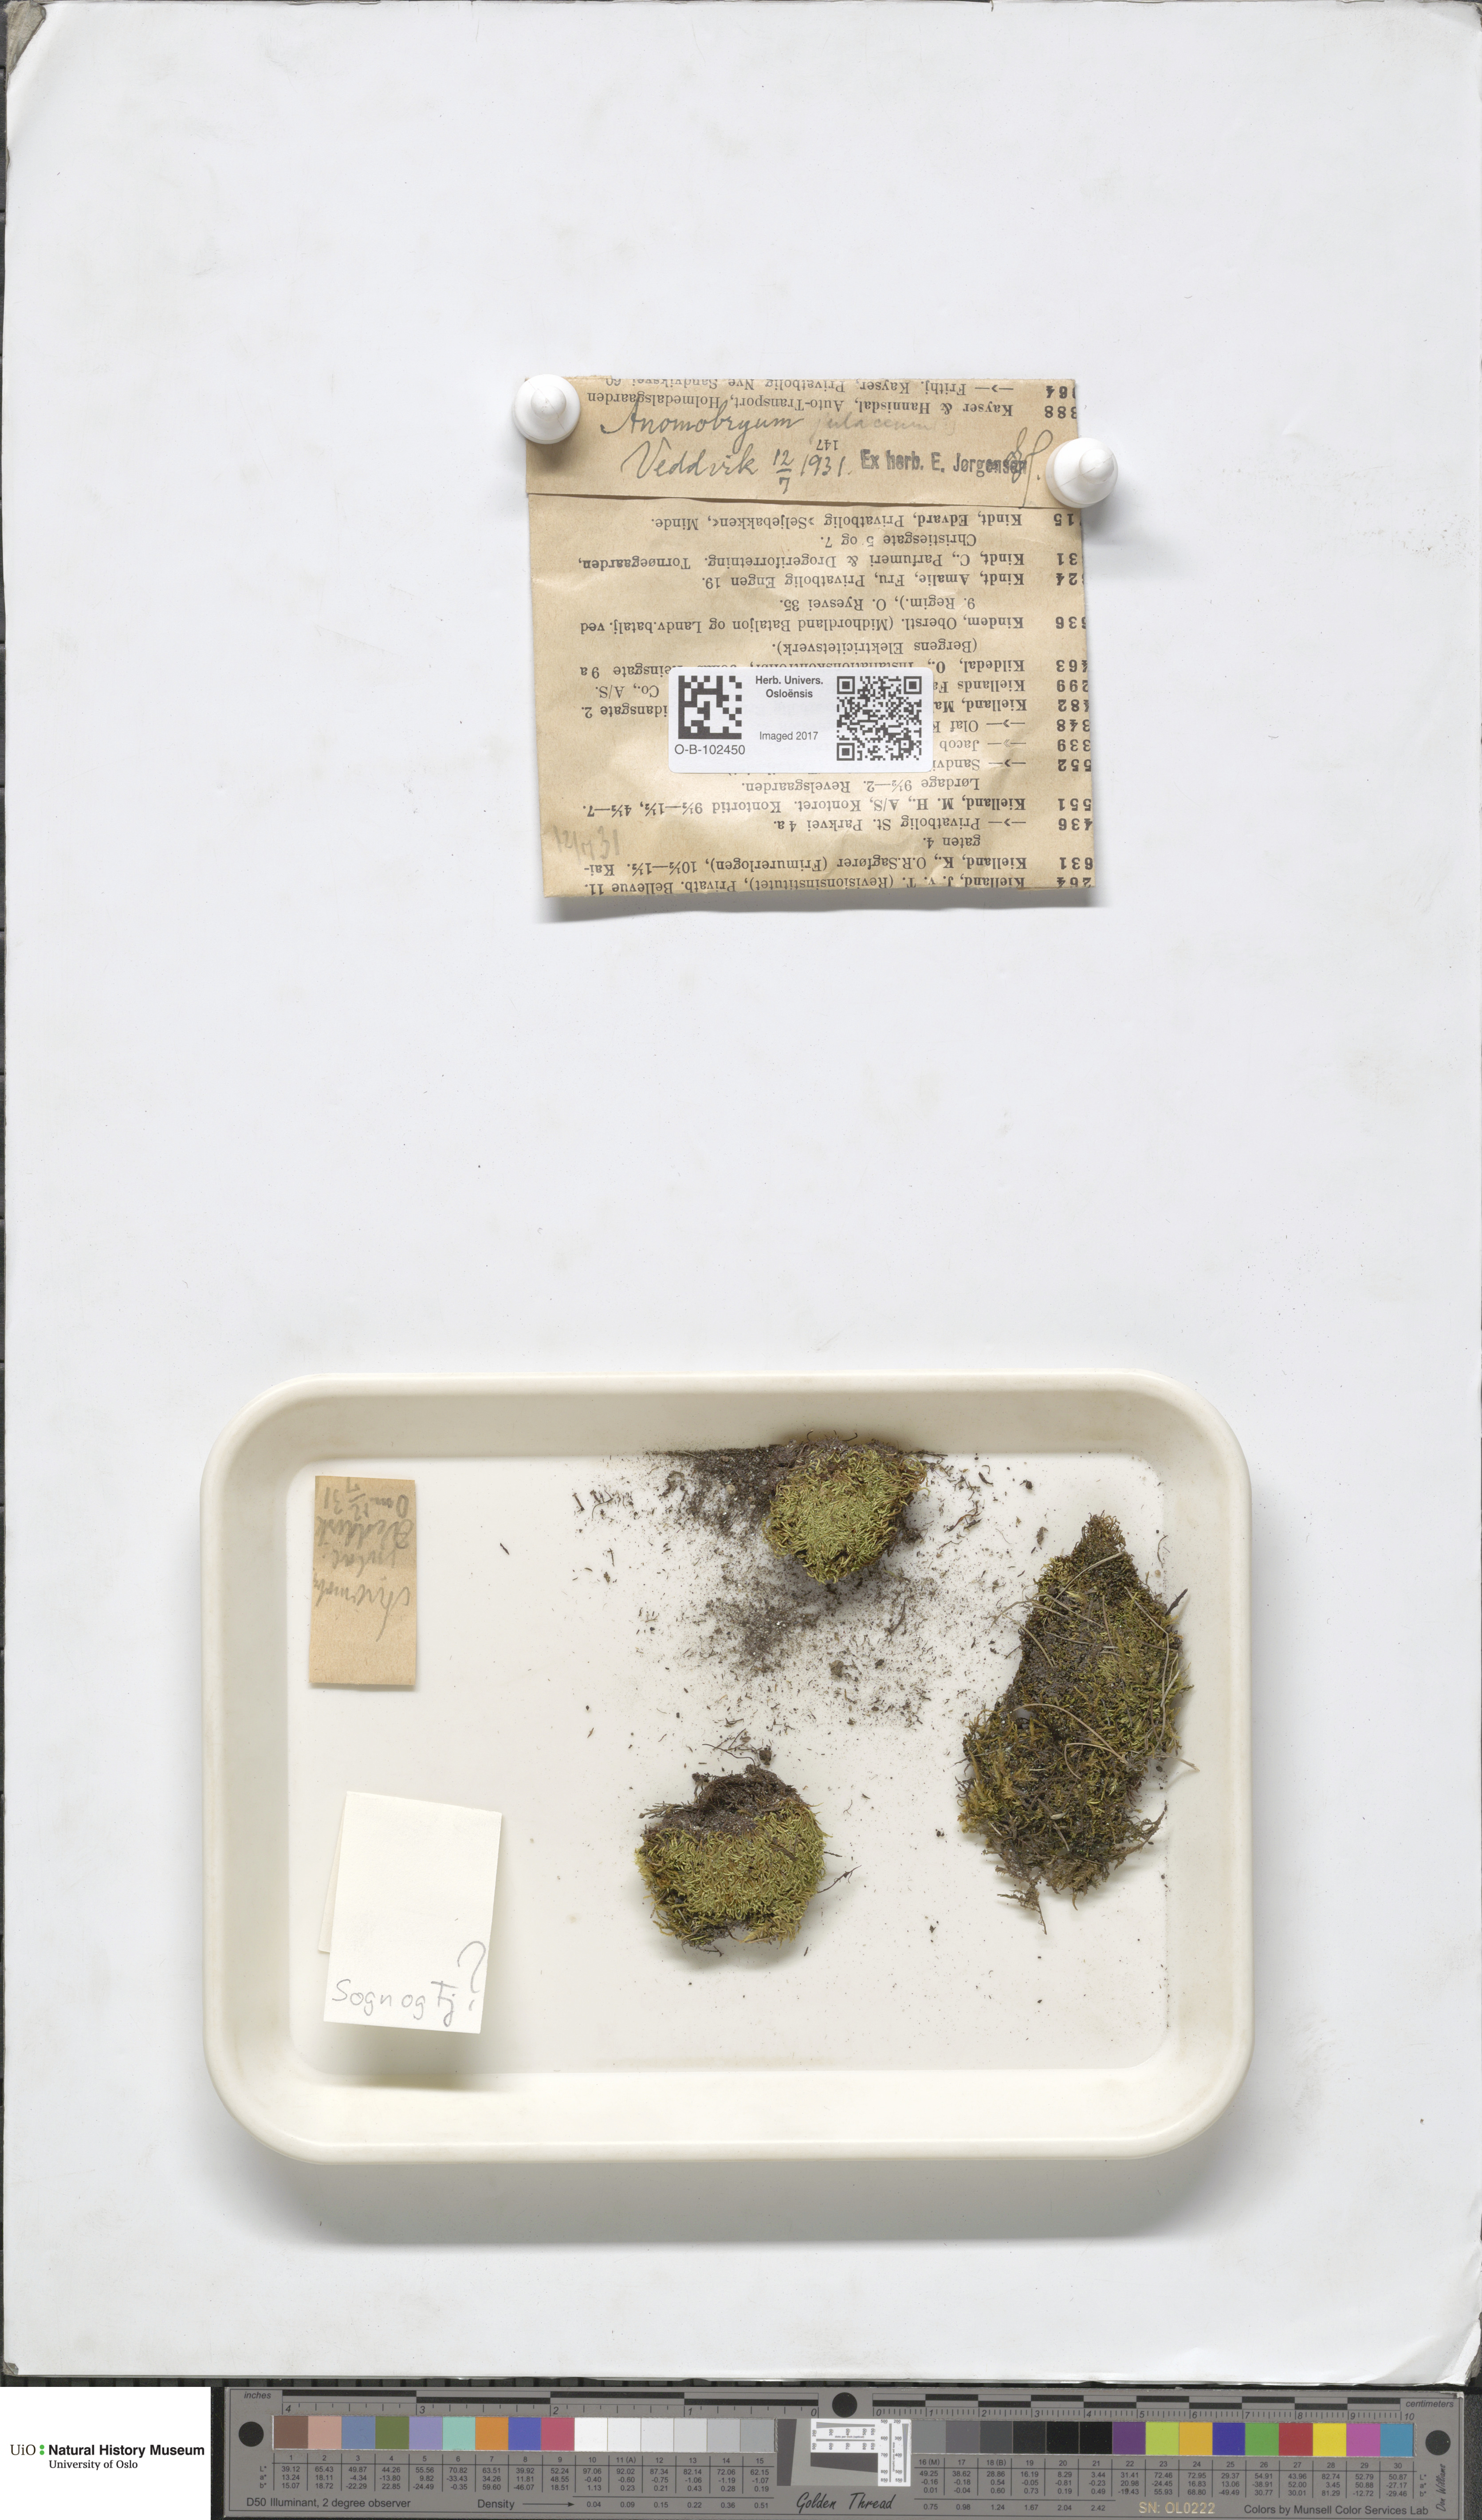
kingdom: Plantae
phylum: Bryophyta
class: Bryopsida
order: Bryales
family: Bryaceae
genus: Anomobryum
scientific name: Anomobryum julaceum
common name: Slender silver moss
